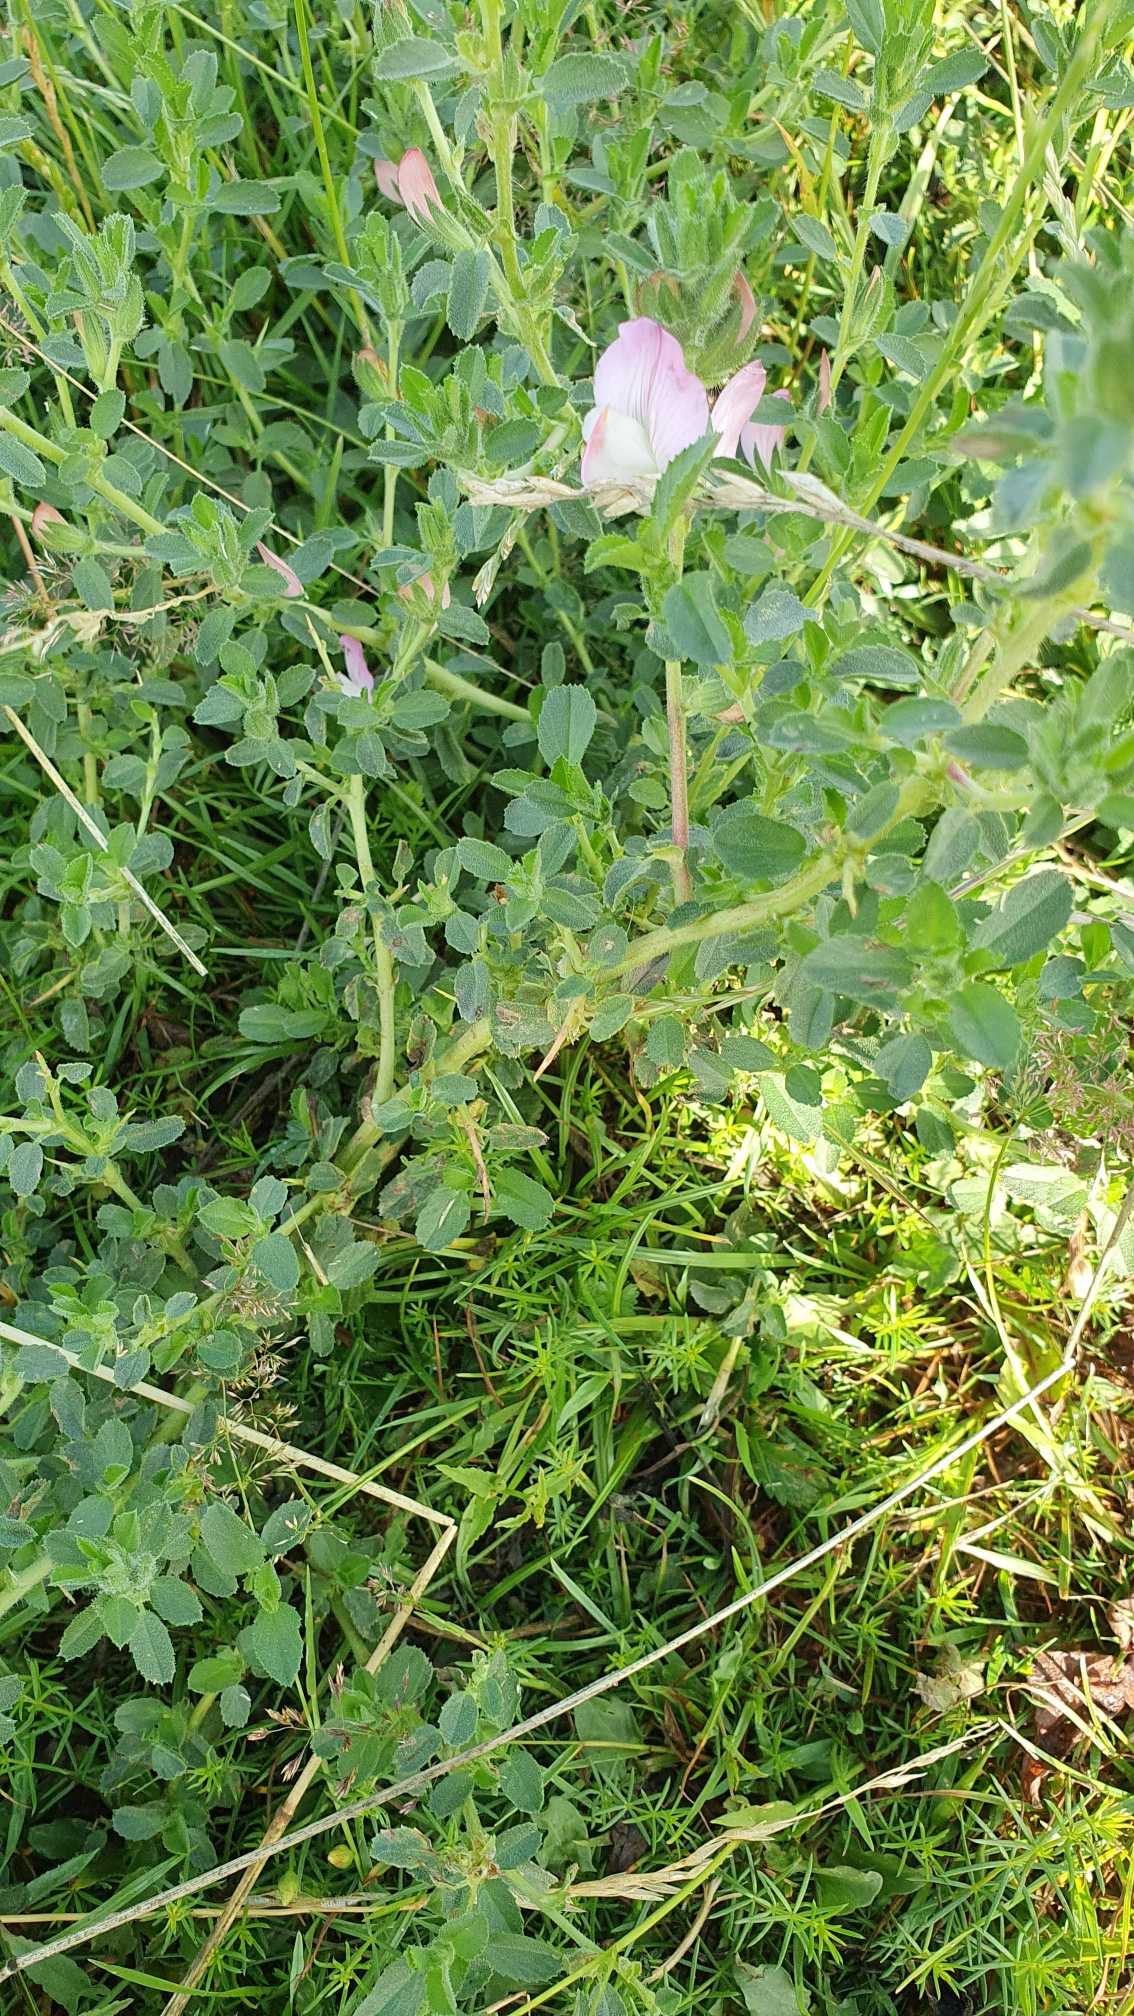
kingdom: Plantae
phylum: Tracheophyta
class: Magnoliopsida
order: Fabales
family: Fabaceae
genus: Ononis
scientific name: Ononis spinosa
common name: Mark-krageklo
